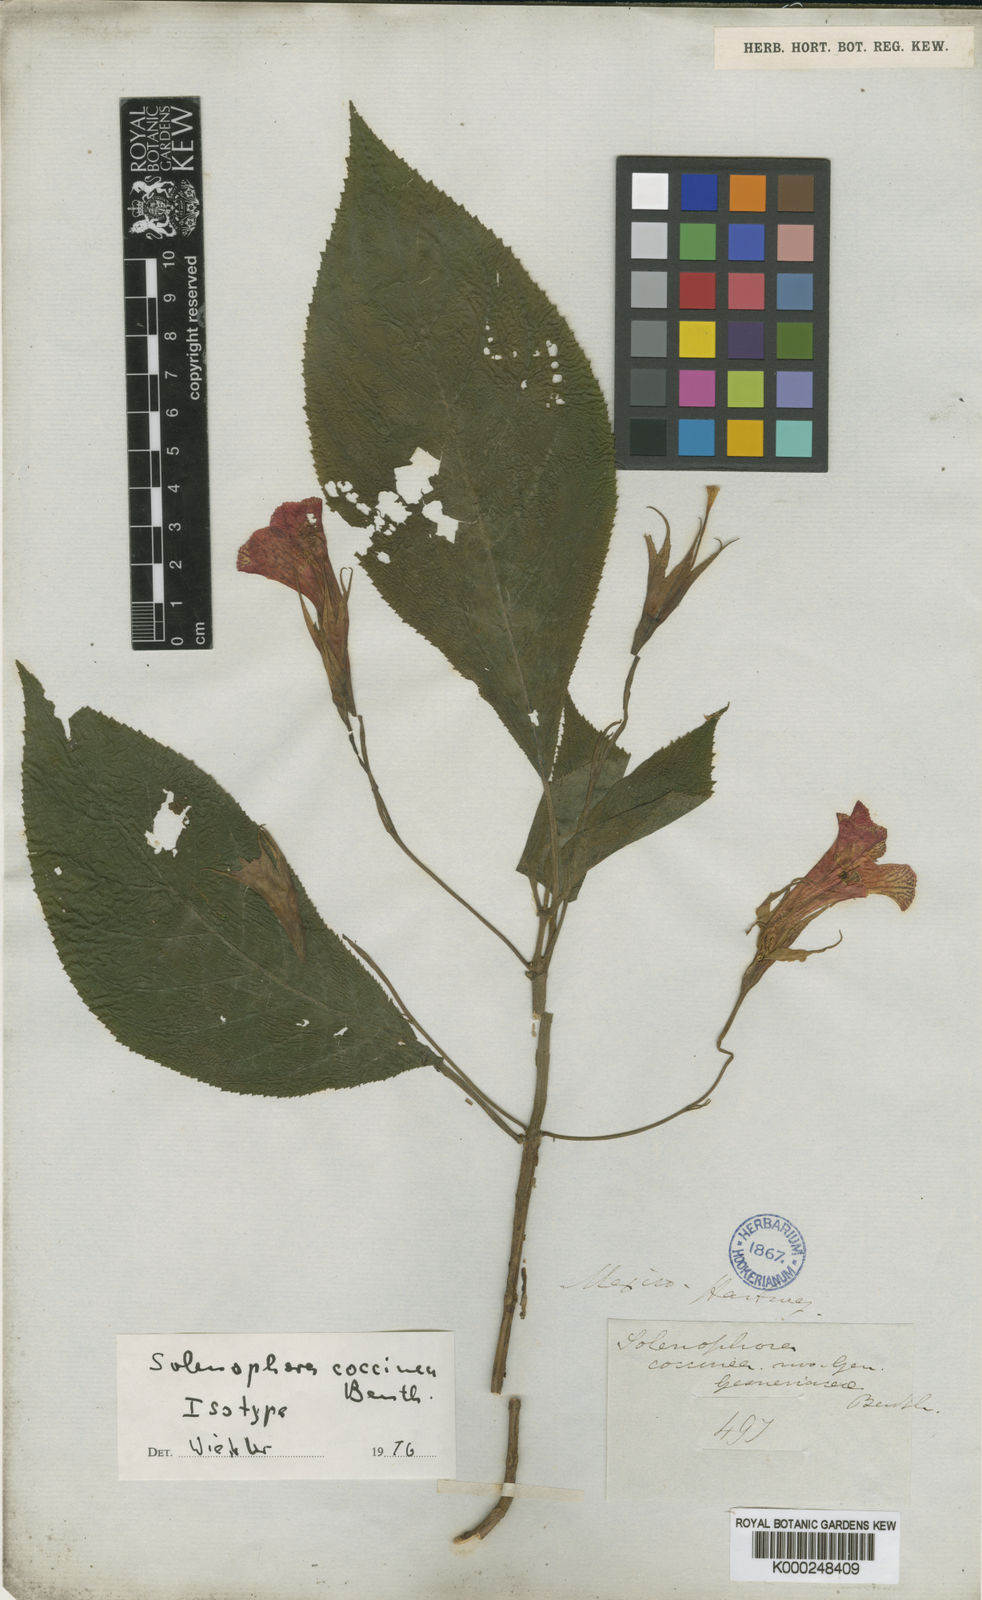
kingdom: Plantae
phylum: Tracheophyta
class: Magnoliopsida
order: Lamiales
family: Gesneriaceae
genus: Solenophora
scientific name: Solenophora coccinea
